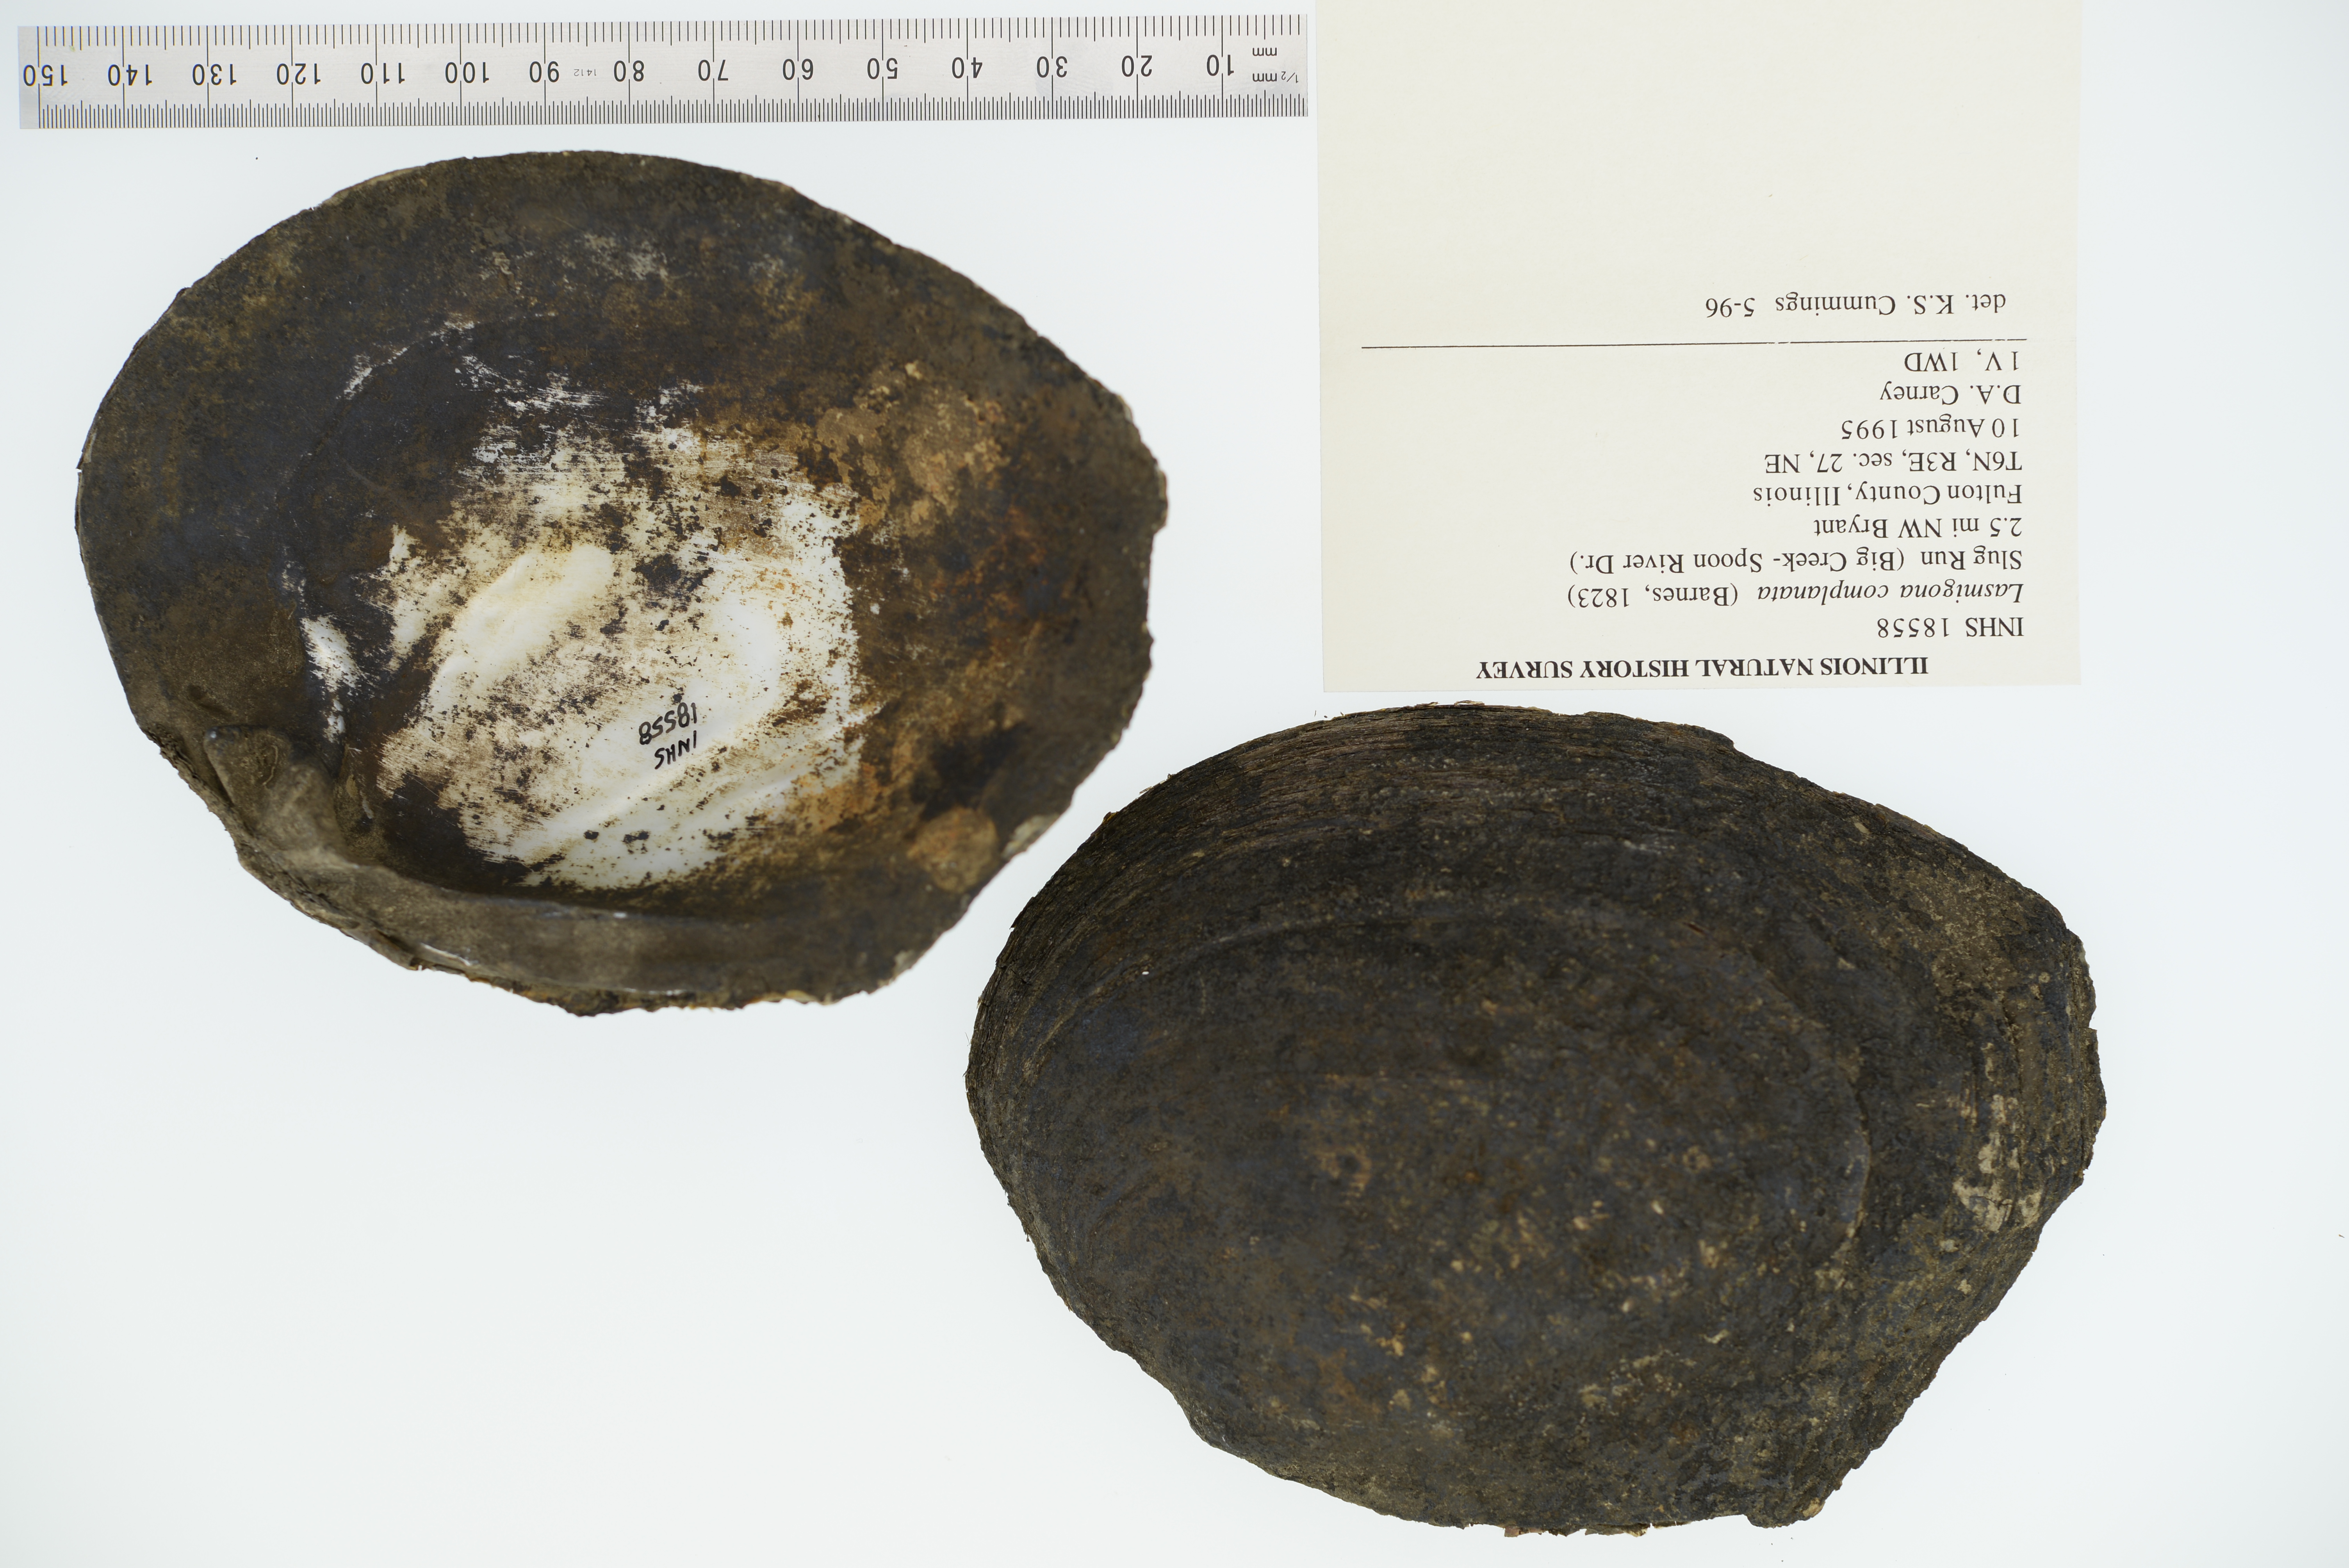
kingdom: Animalia
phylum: Mollusca
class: Bivalvia
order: Unionida
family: Unionidae
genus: Lasmigona
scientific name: Lasmigona complanata
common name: White heelsplitter
